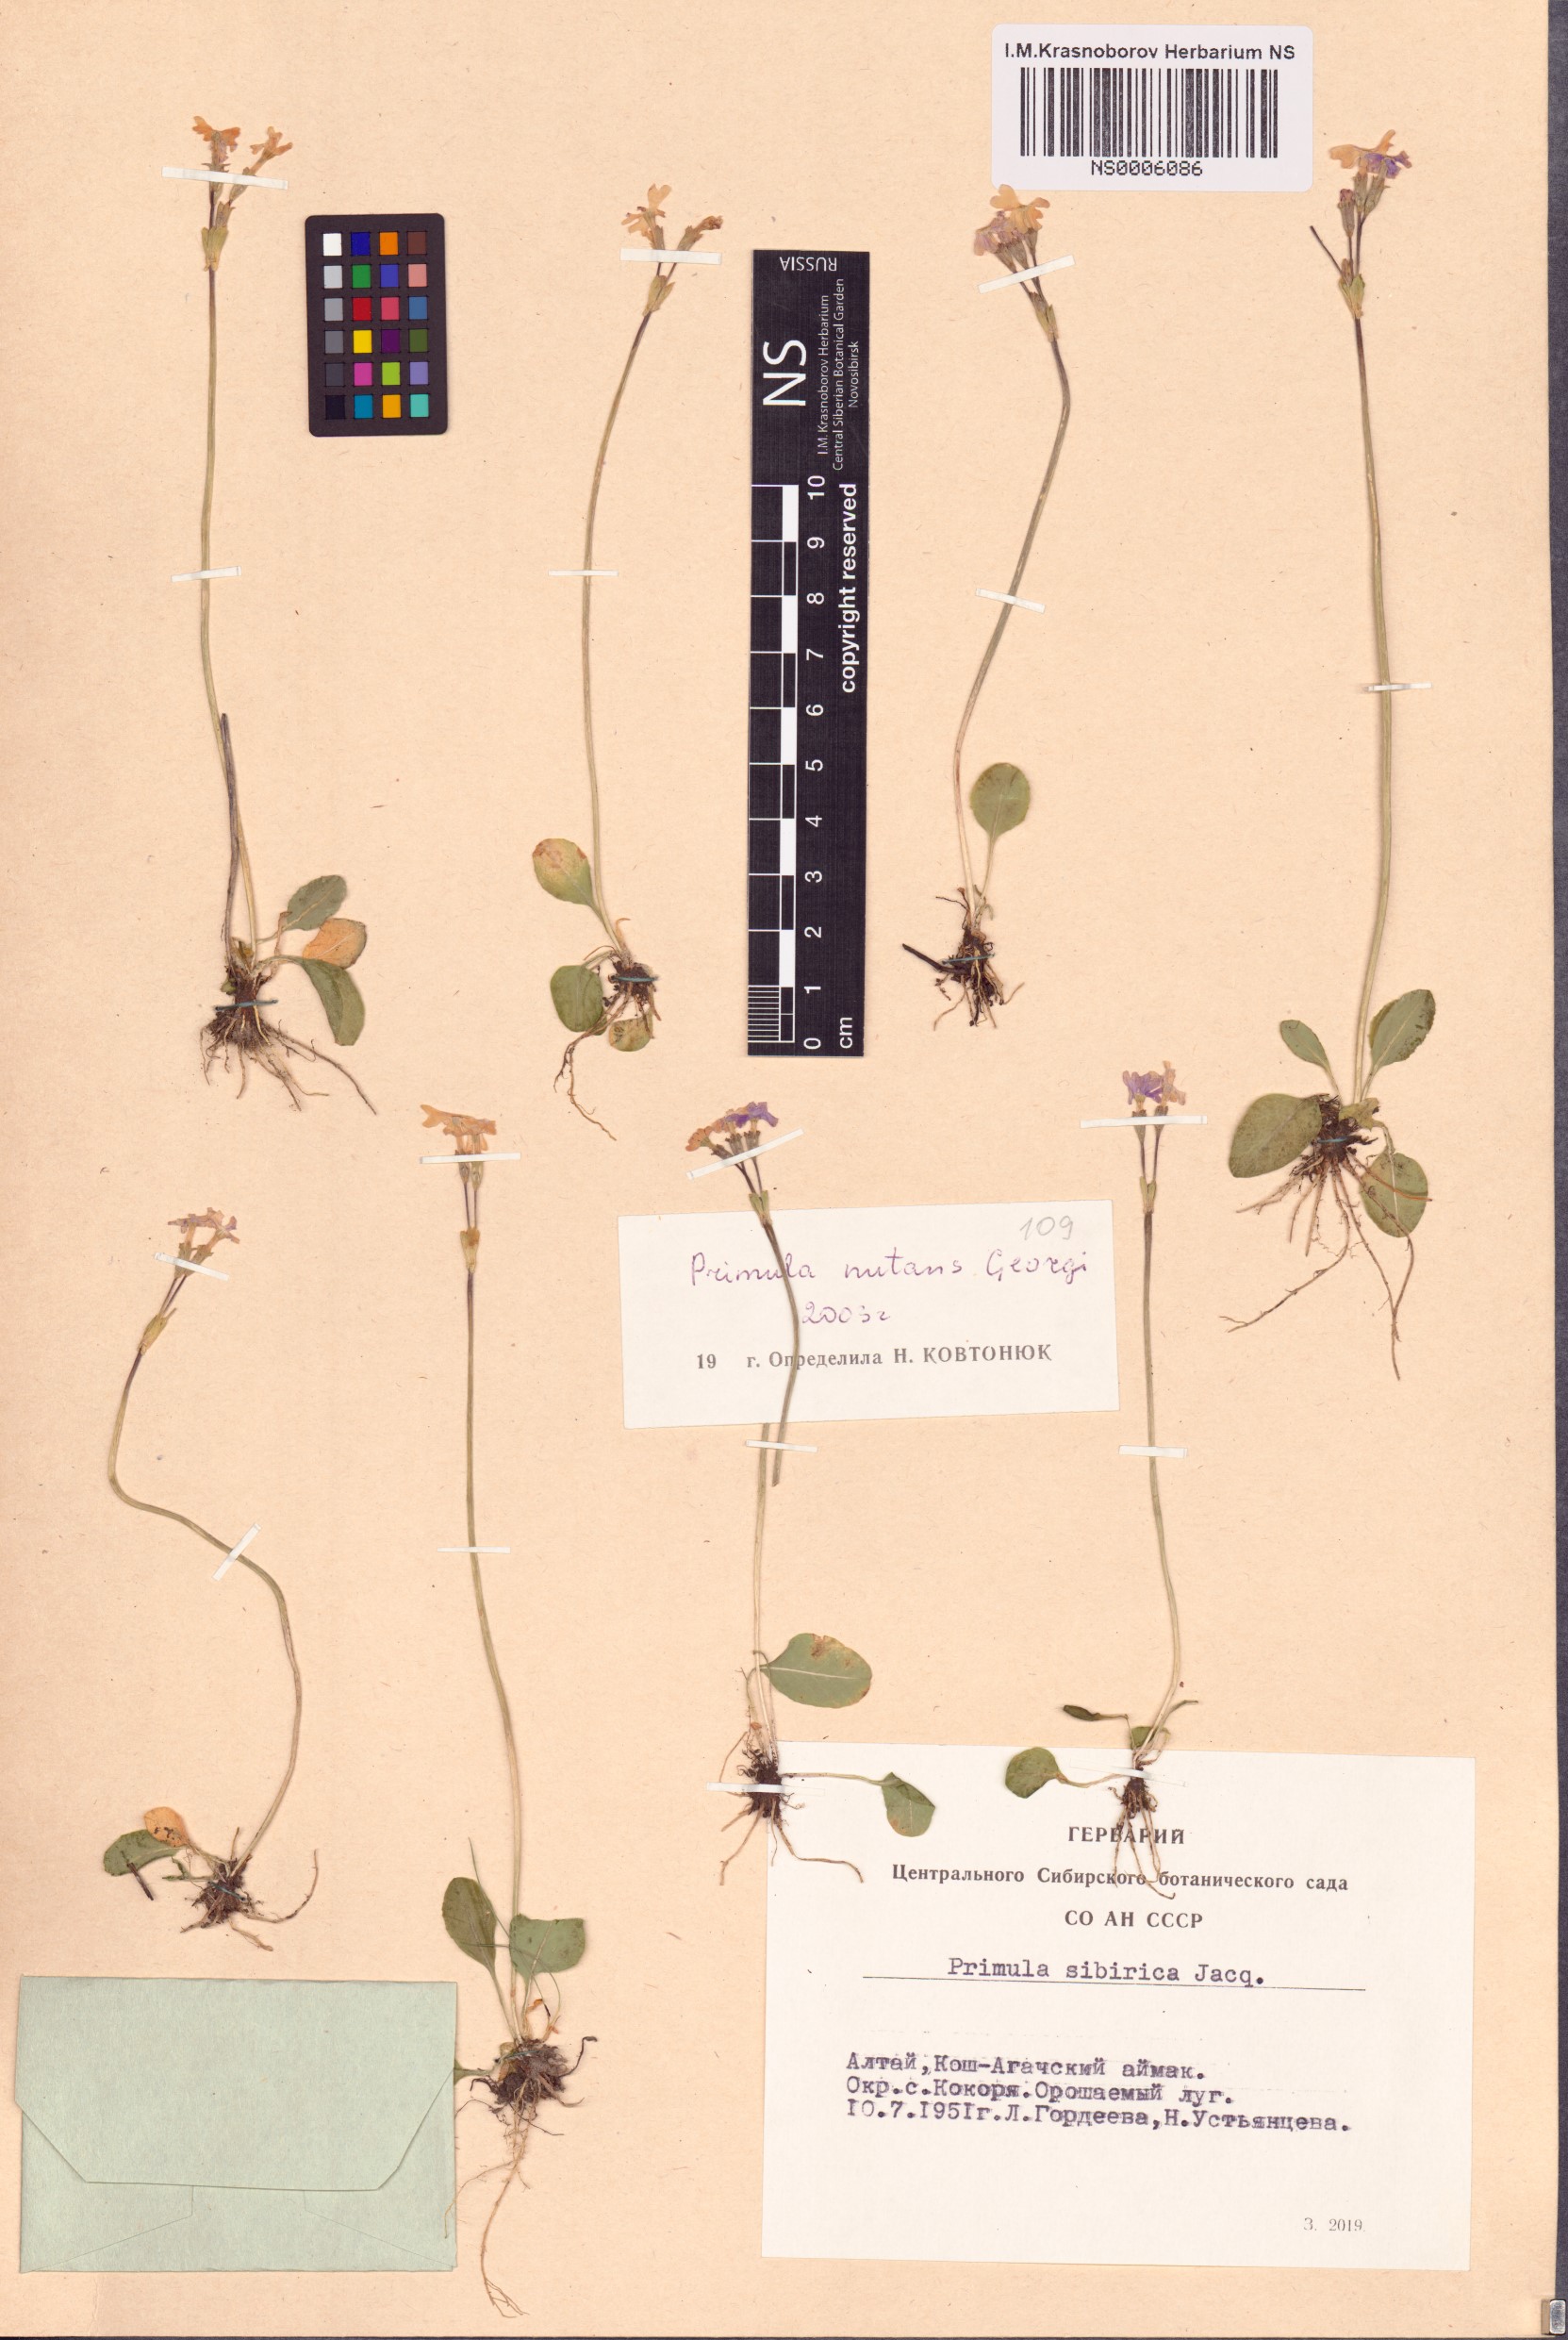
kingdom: Plantae
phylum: Tracheophyta
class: Magnoliopsida
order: Ericales
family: Primulaceae
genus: Primula
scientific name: Primula nutans
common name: Siberian primrose
